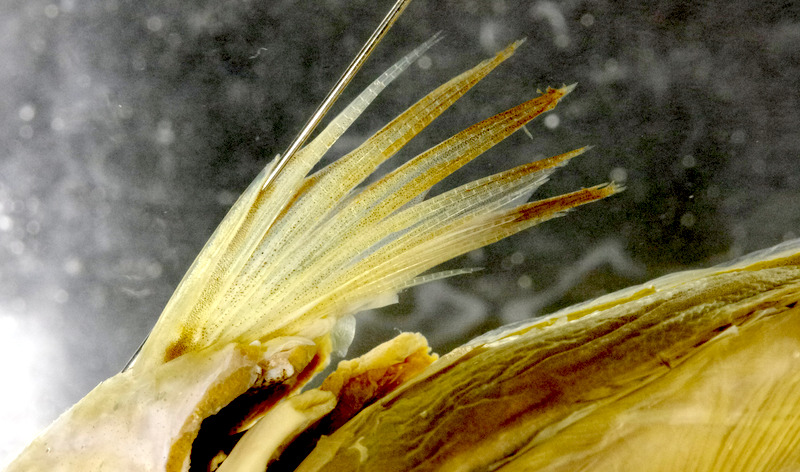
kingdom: Animalia
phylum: Chordata
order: Perciformes
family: Embiotocidae
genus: Ditrema
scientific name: Ditrema jordani
